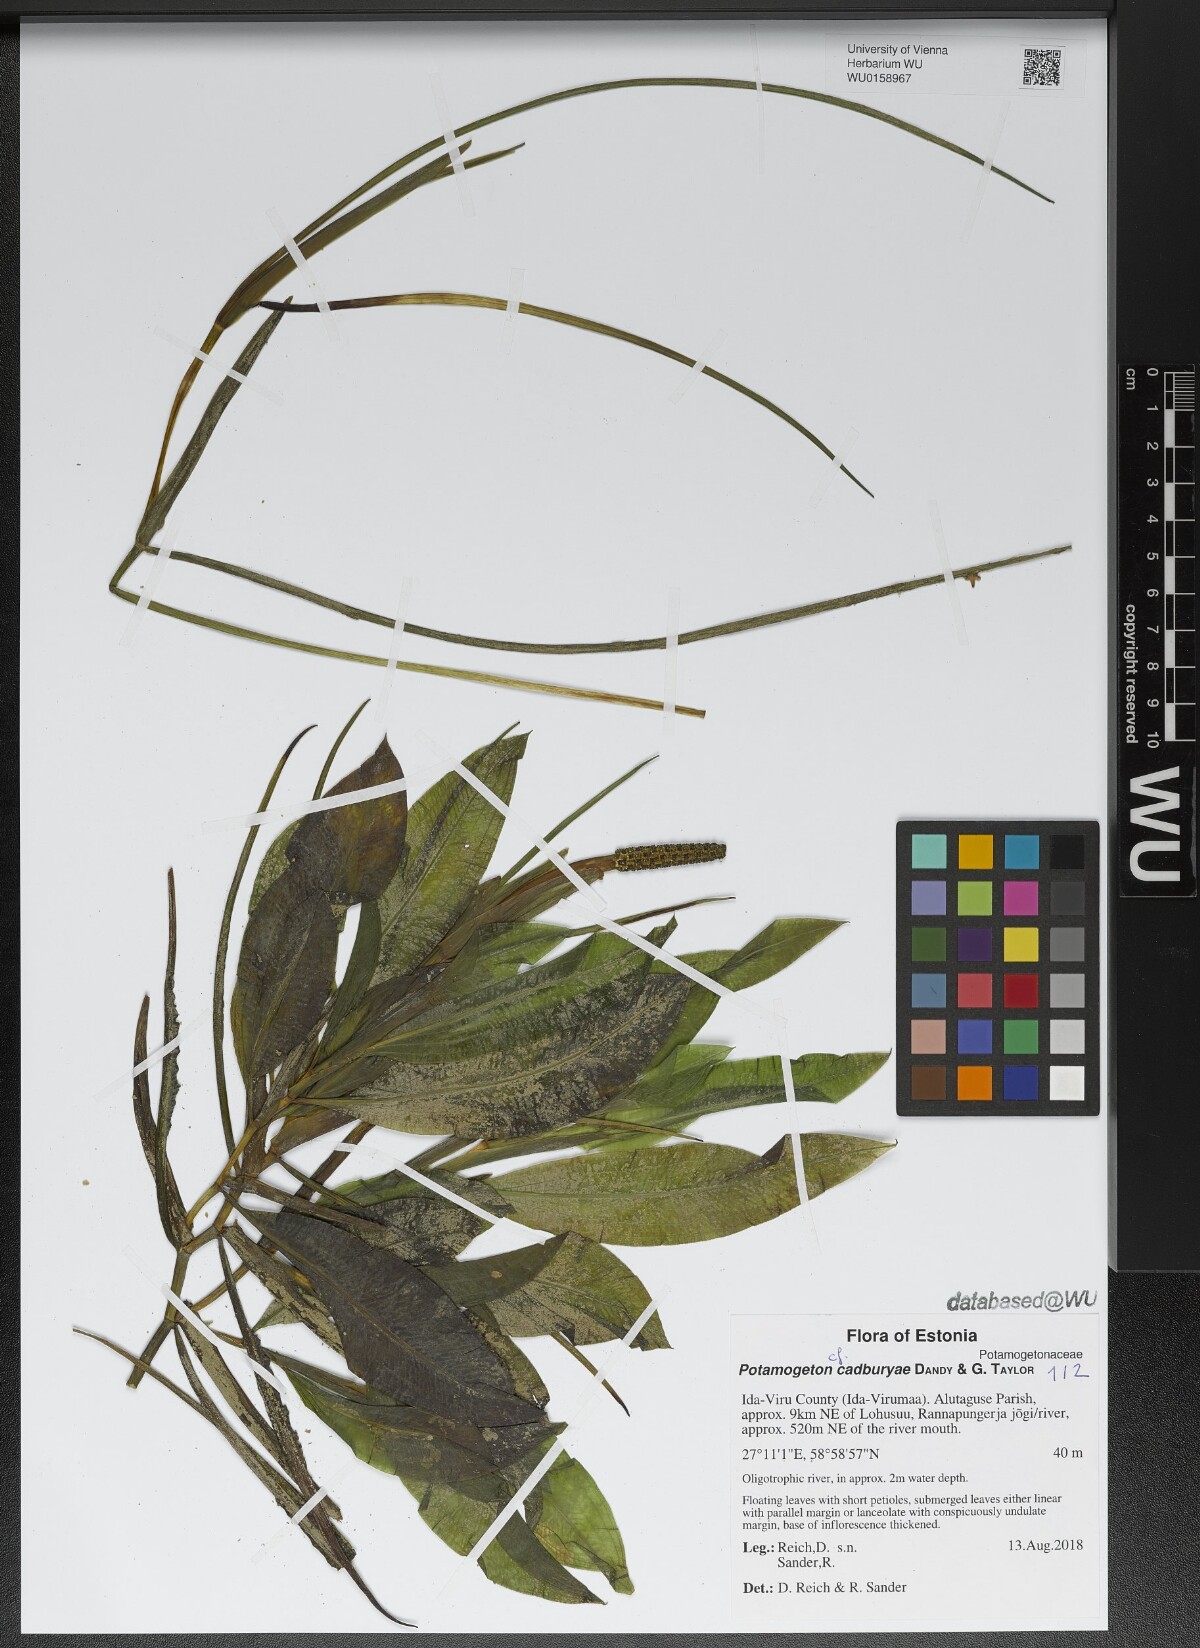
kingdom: Plantae
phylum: Tracheophyta
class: Liliopsida
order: Alismatales
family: Potamogetonaceae
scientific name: Potamogetonaceae
